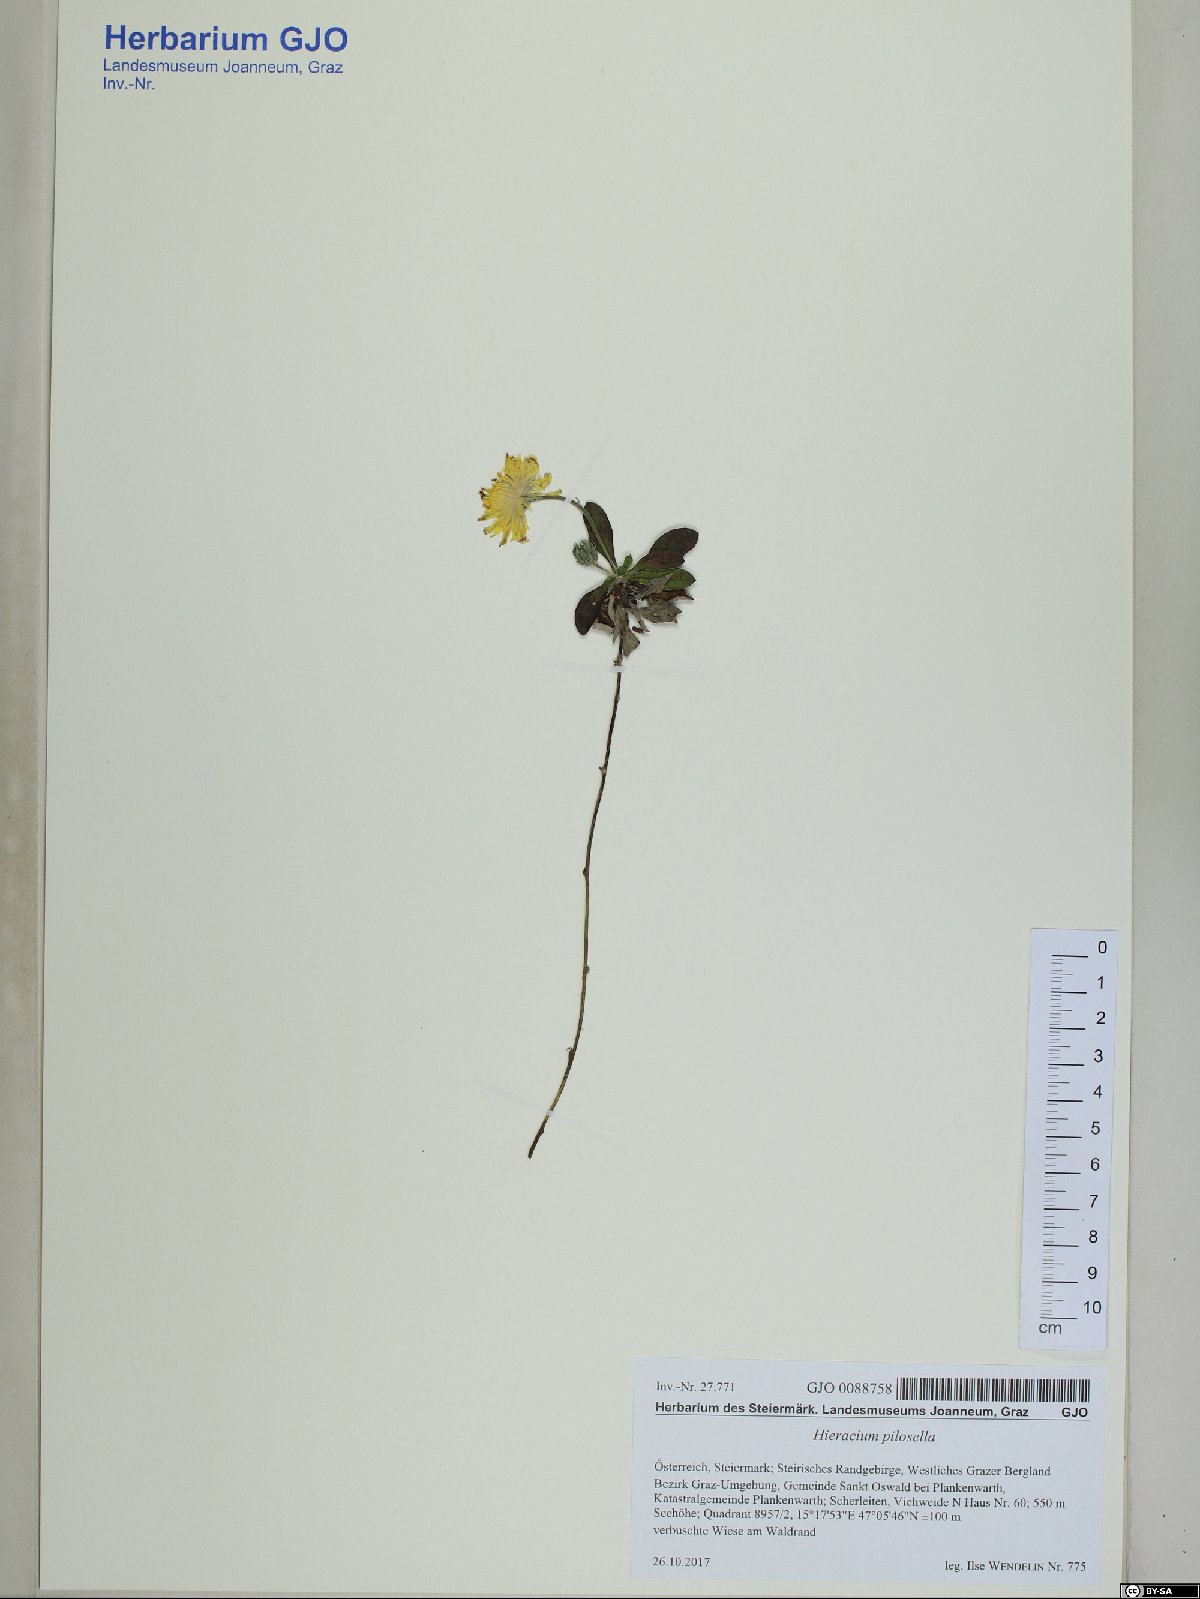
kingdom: Plantae
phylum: Tracheophyta
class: Magnoliopsida
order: Asterales
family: Asteraceae
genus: Pilosella
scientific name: Pilosella officinarum
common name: Mouse-ear hawkweed
